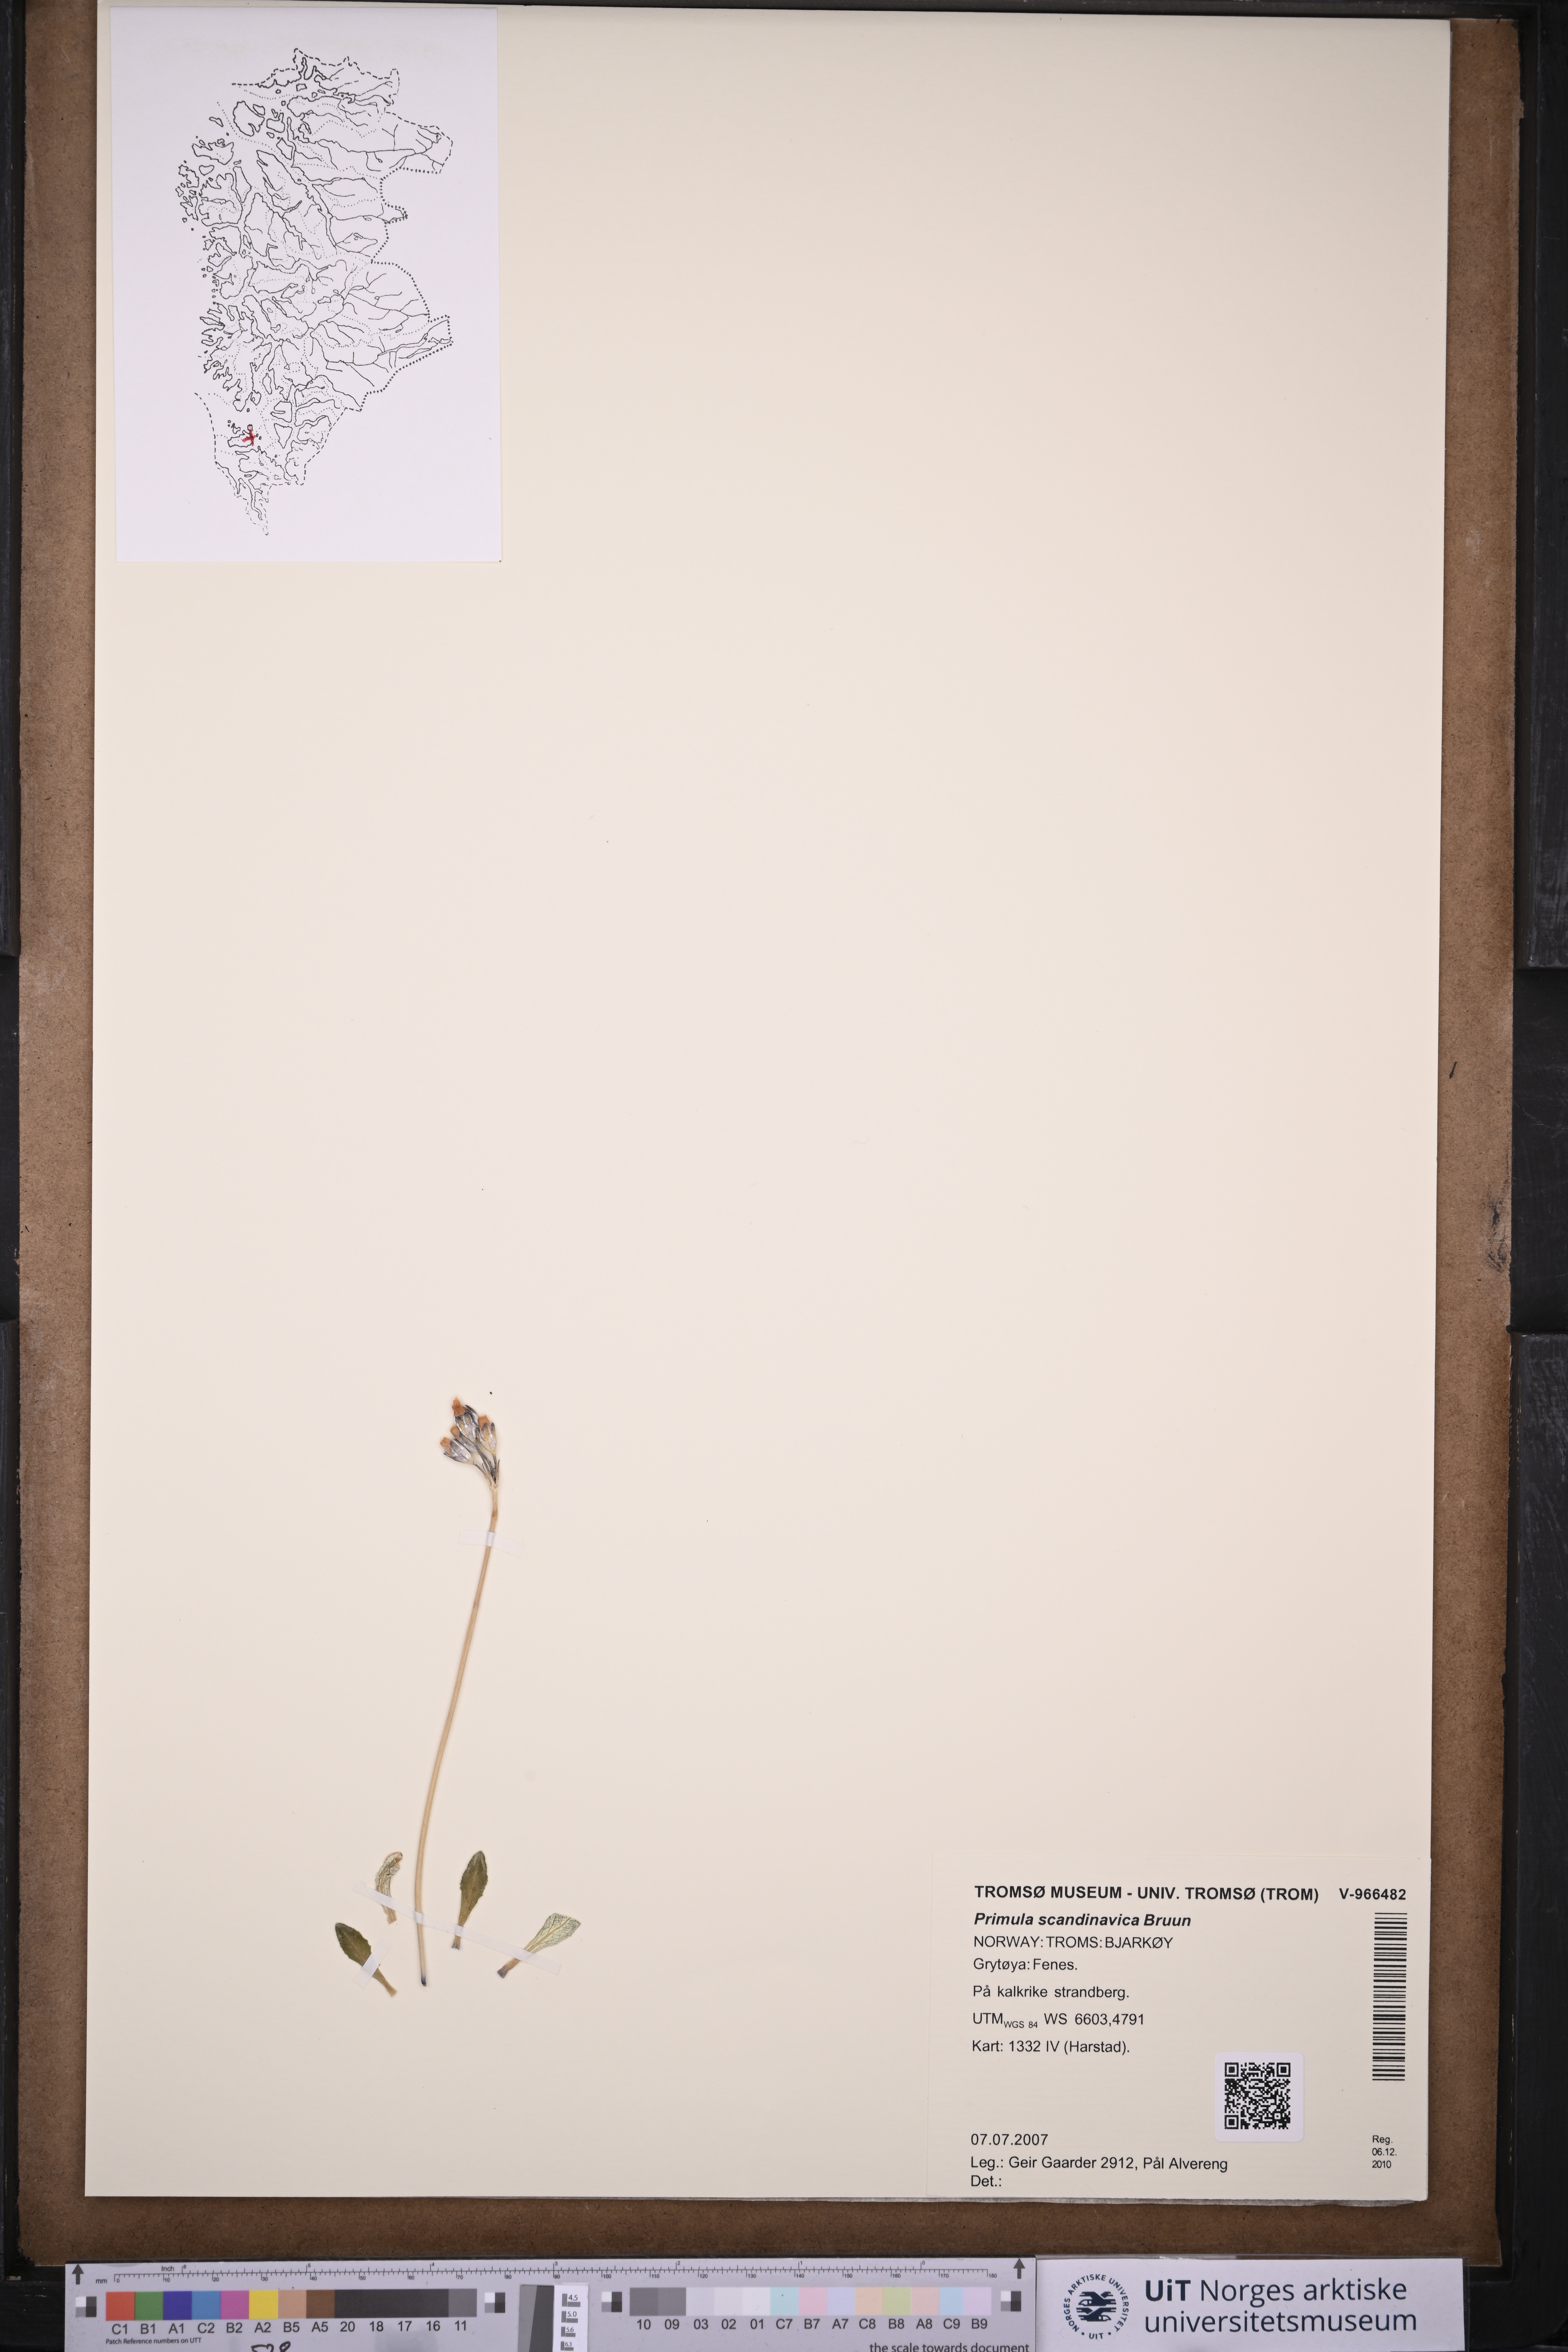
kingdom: Plantae
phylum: Tracheophyta
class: Magnoliopsida
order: Ericales
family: Primulaceae
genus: Primula
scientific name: Primula scandinavica
